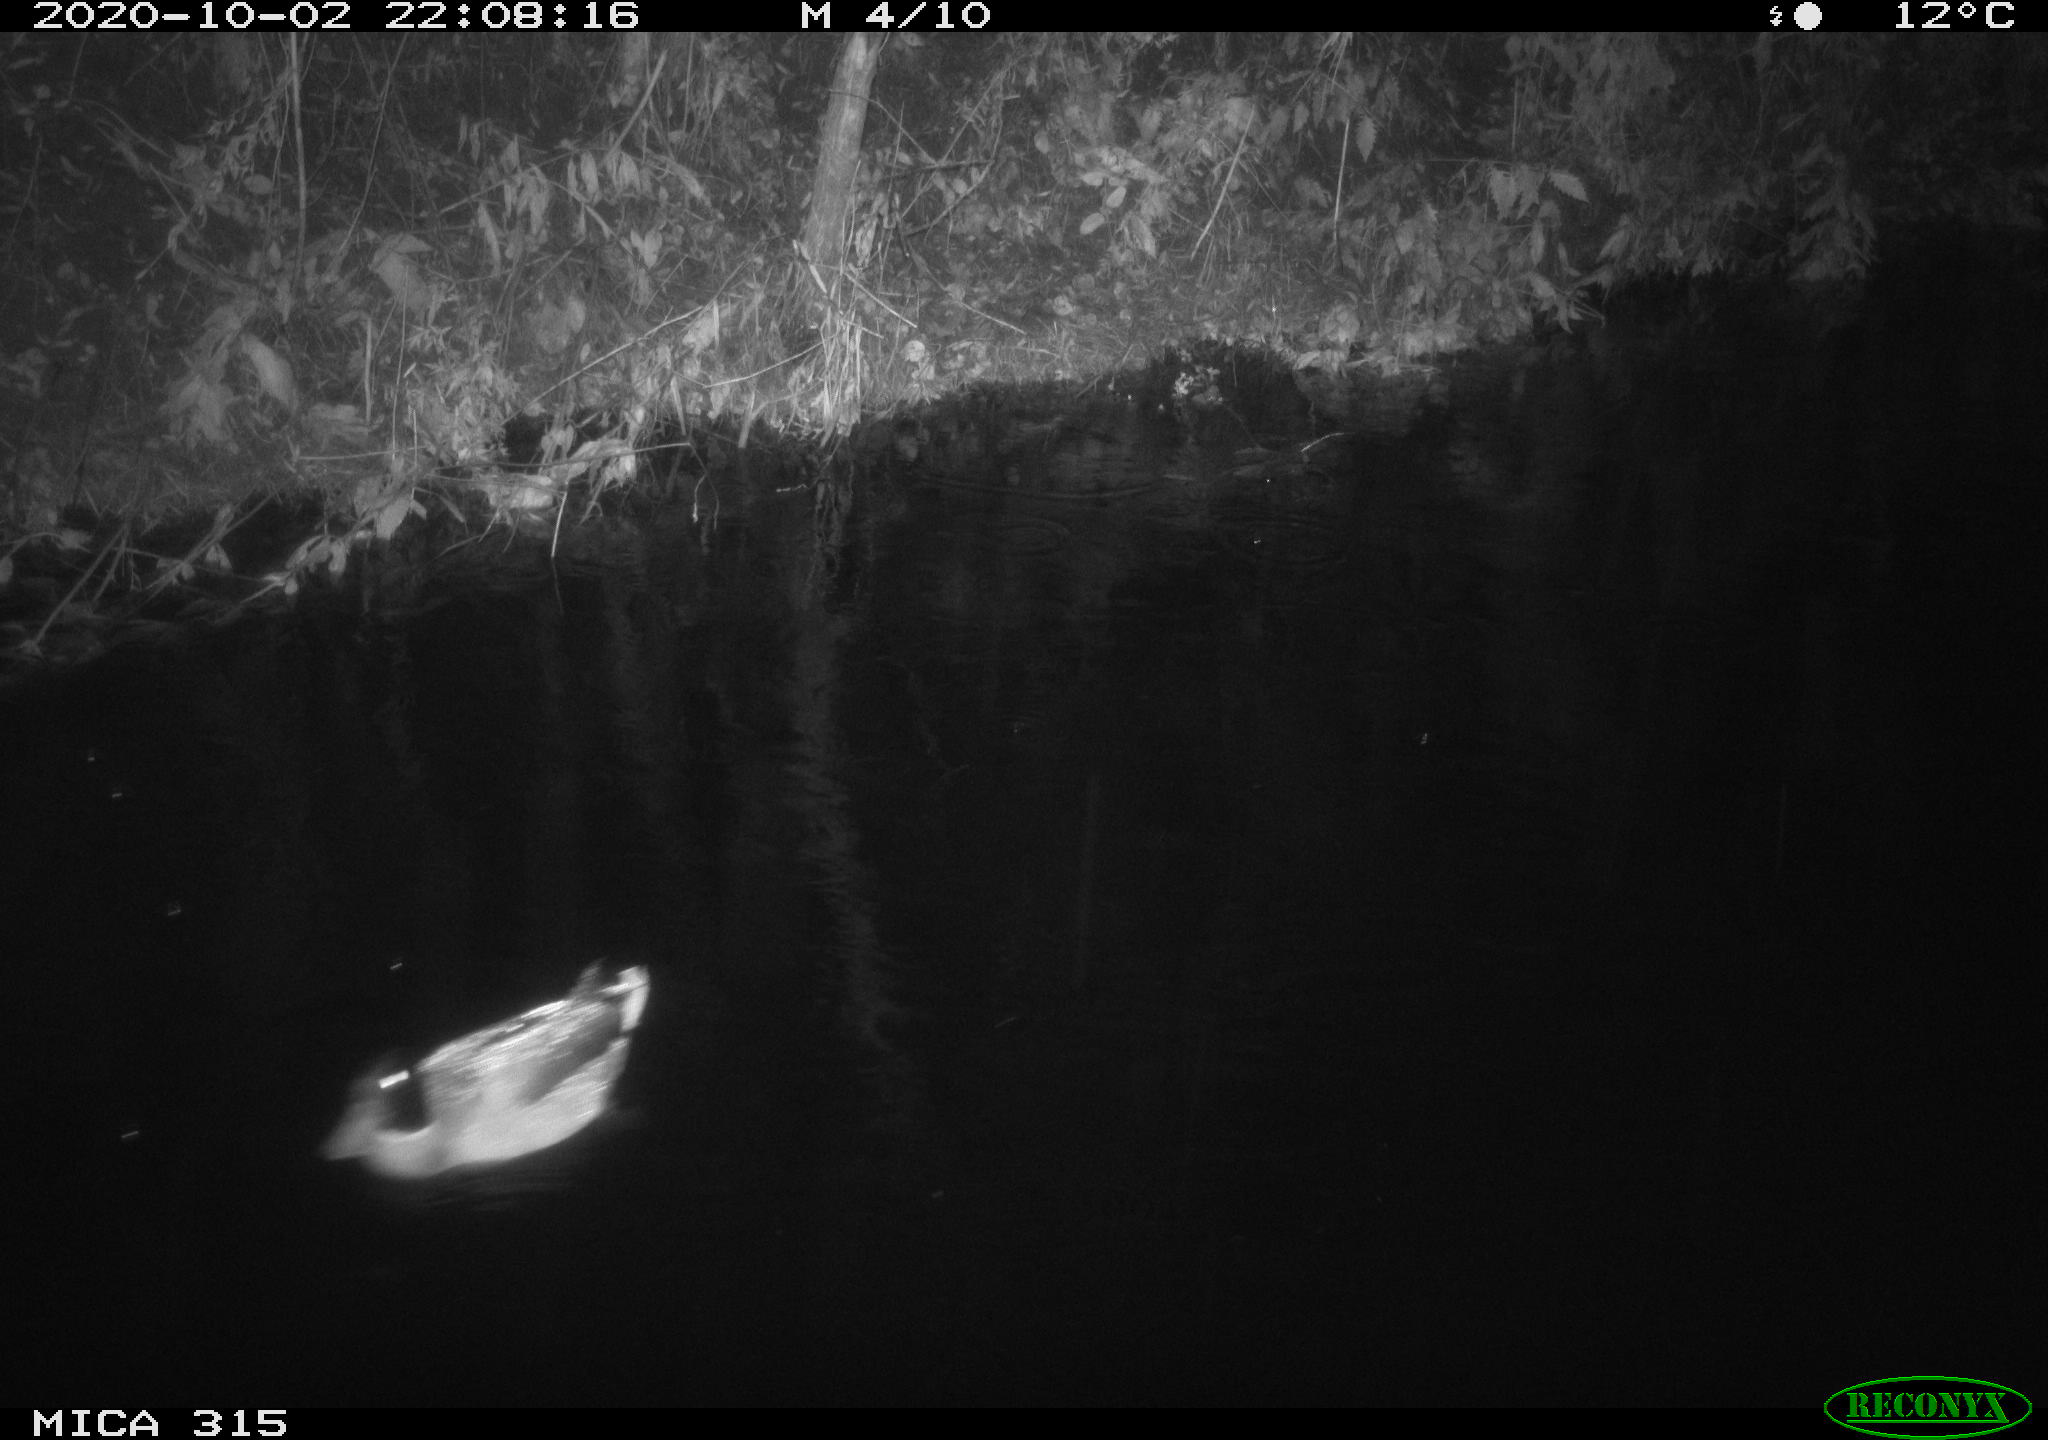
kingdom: Animalia
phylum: Chordata
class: Aves
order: Anseriformes
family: Anatidae
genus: Anas
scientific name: Anas platyrhynchos
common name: Mallard
